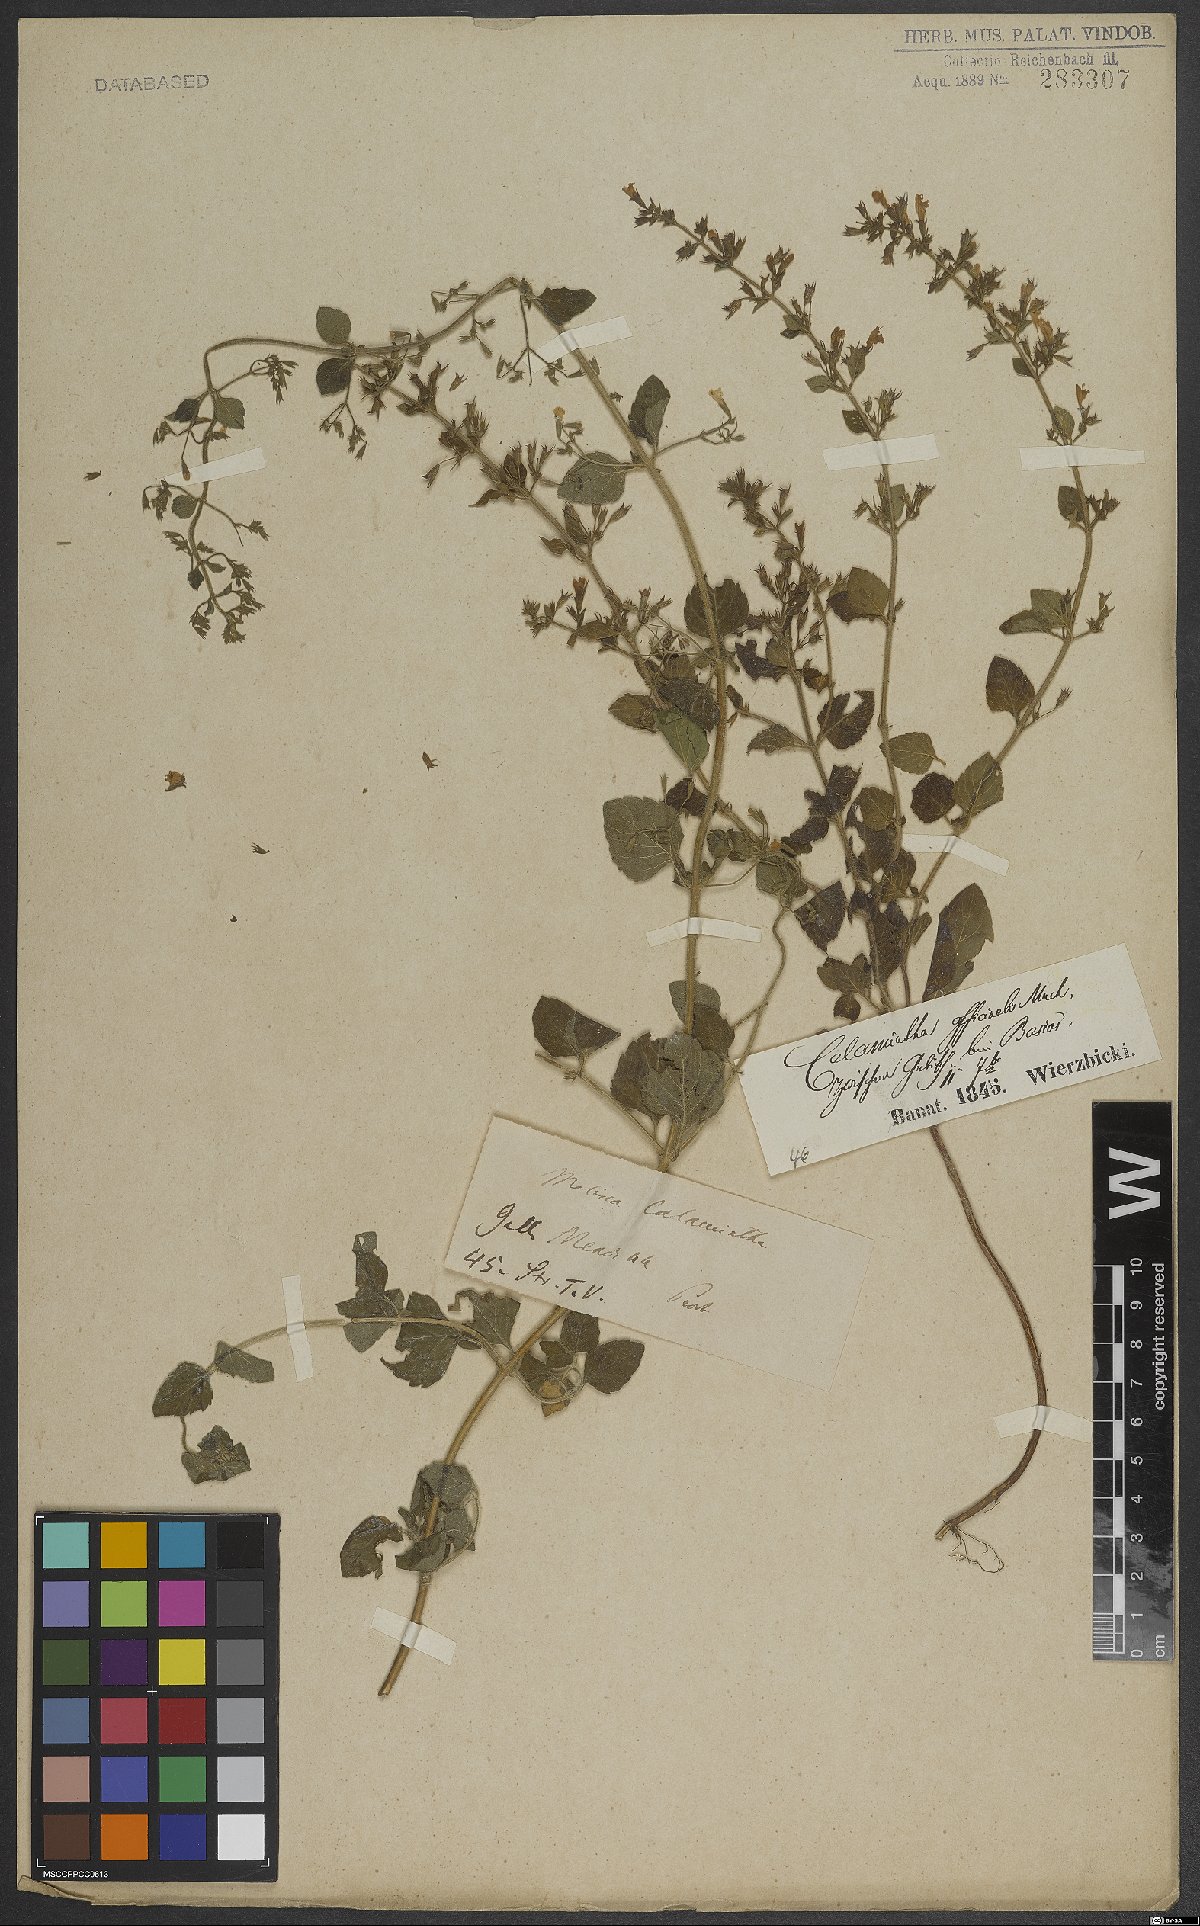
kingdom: Plantae
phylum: Tracheophyta
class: Magnoliopsida
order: Lamiales
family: Lamiaceae
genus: Clinopodium
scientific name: Clinopodium nepeta
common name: Lesser calamint
